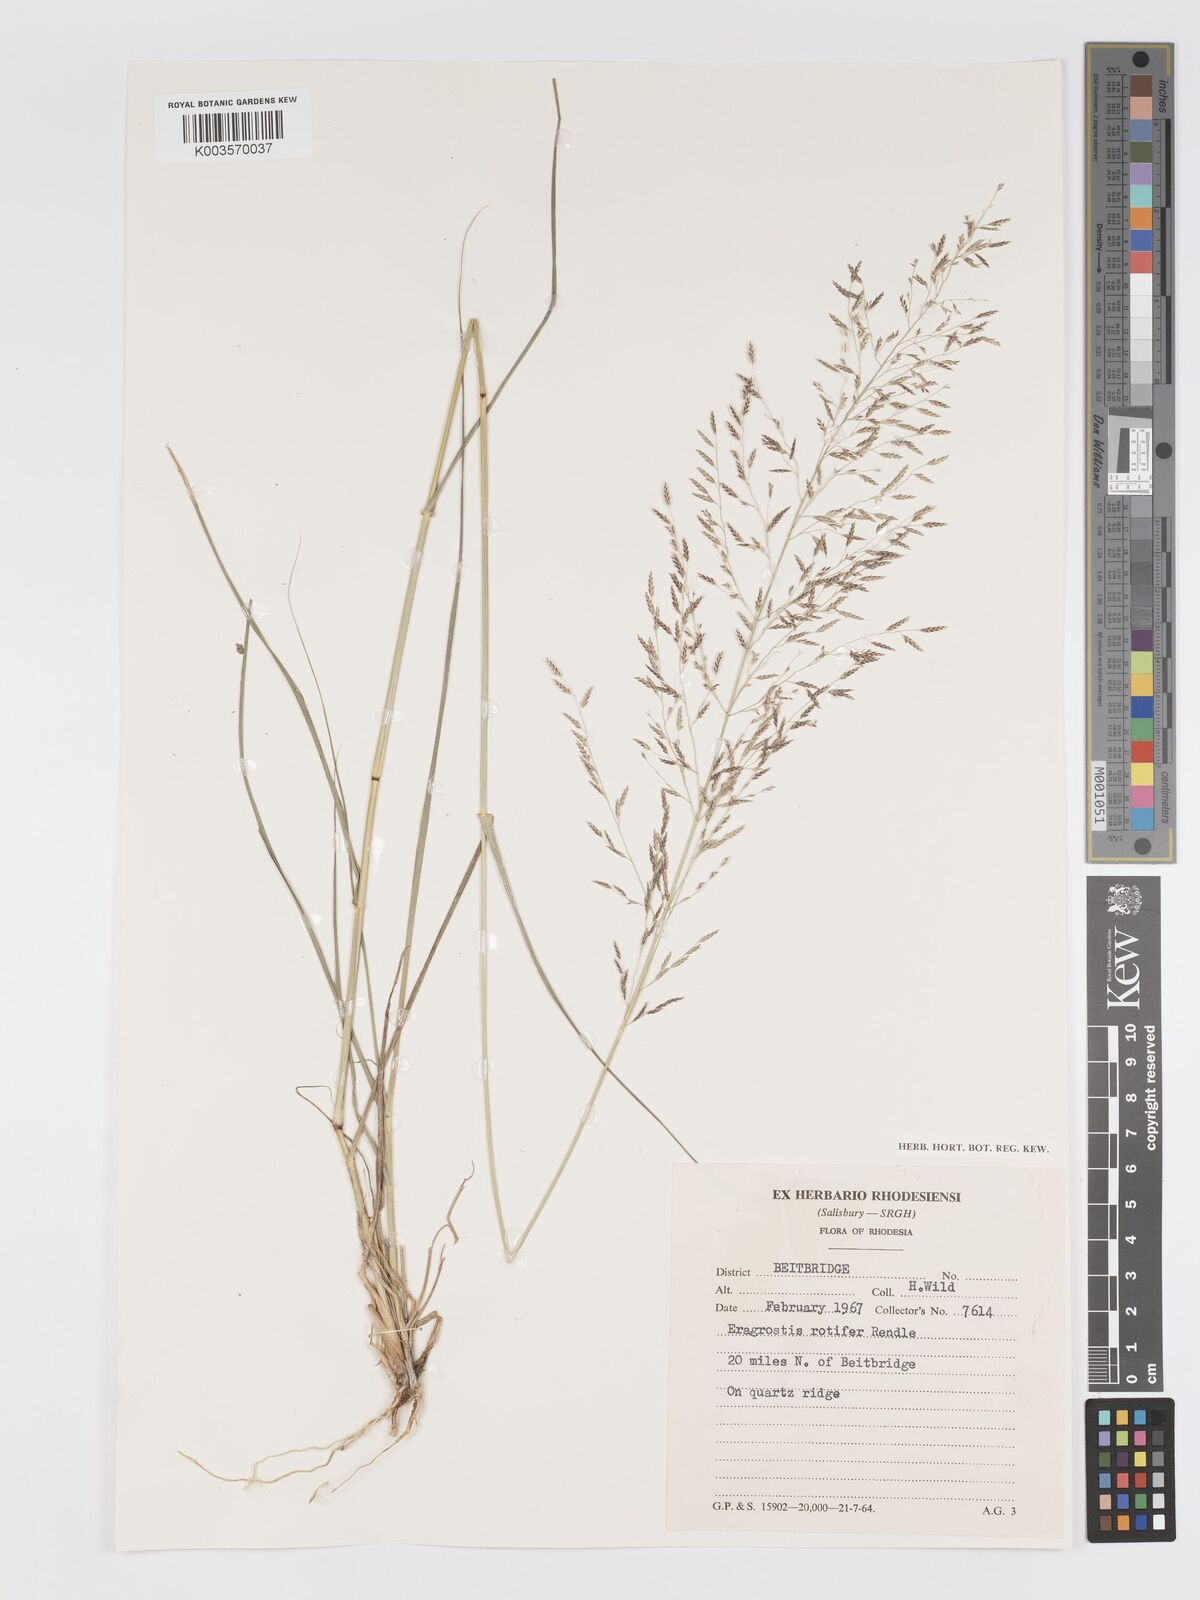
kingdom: Plantae
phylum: Tracheophyta
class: Liliopsida
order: Poales
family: Poaceae
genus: Eragrostis
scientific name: Eragrostis rotifer
